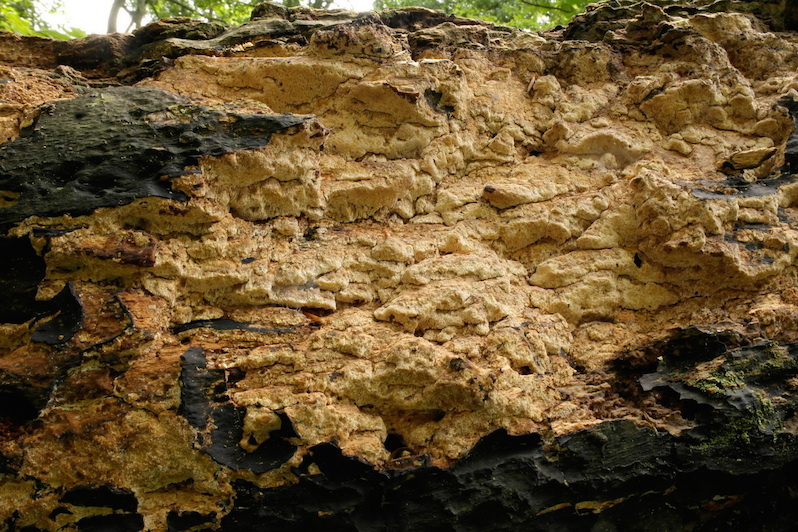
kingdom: Fungi
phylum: Basidiomycota
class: Agaricomycetes
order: Hymenochaetales
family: Schizoporaceae
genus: Xylodon
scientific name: Xylodon flaviporus
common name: gulporet tandsvamp
